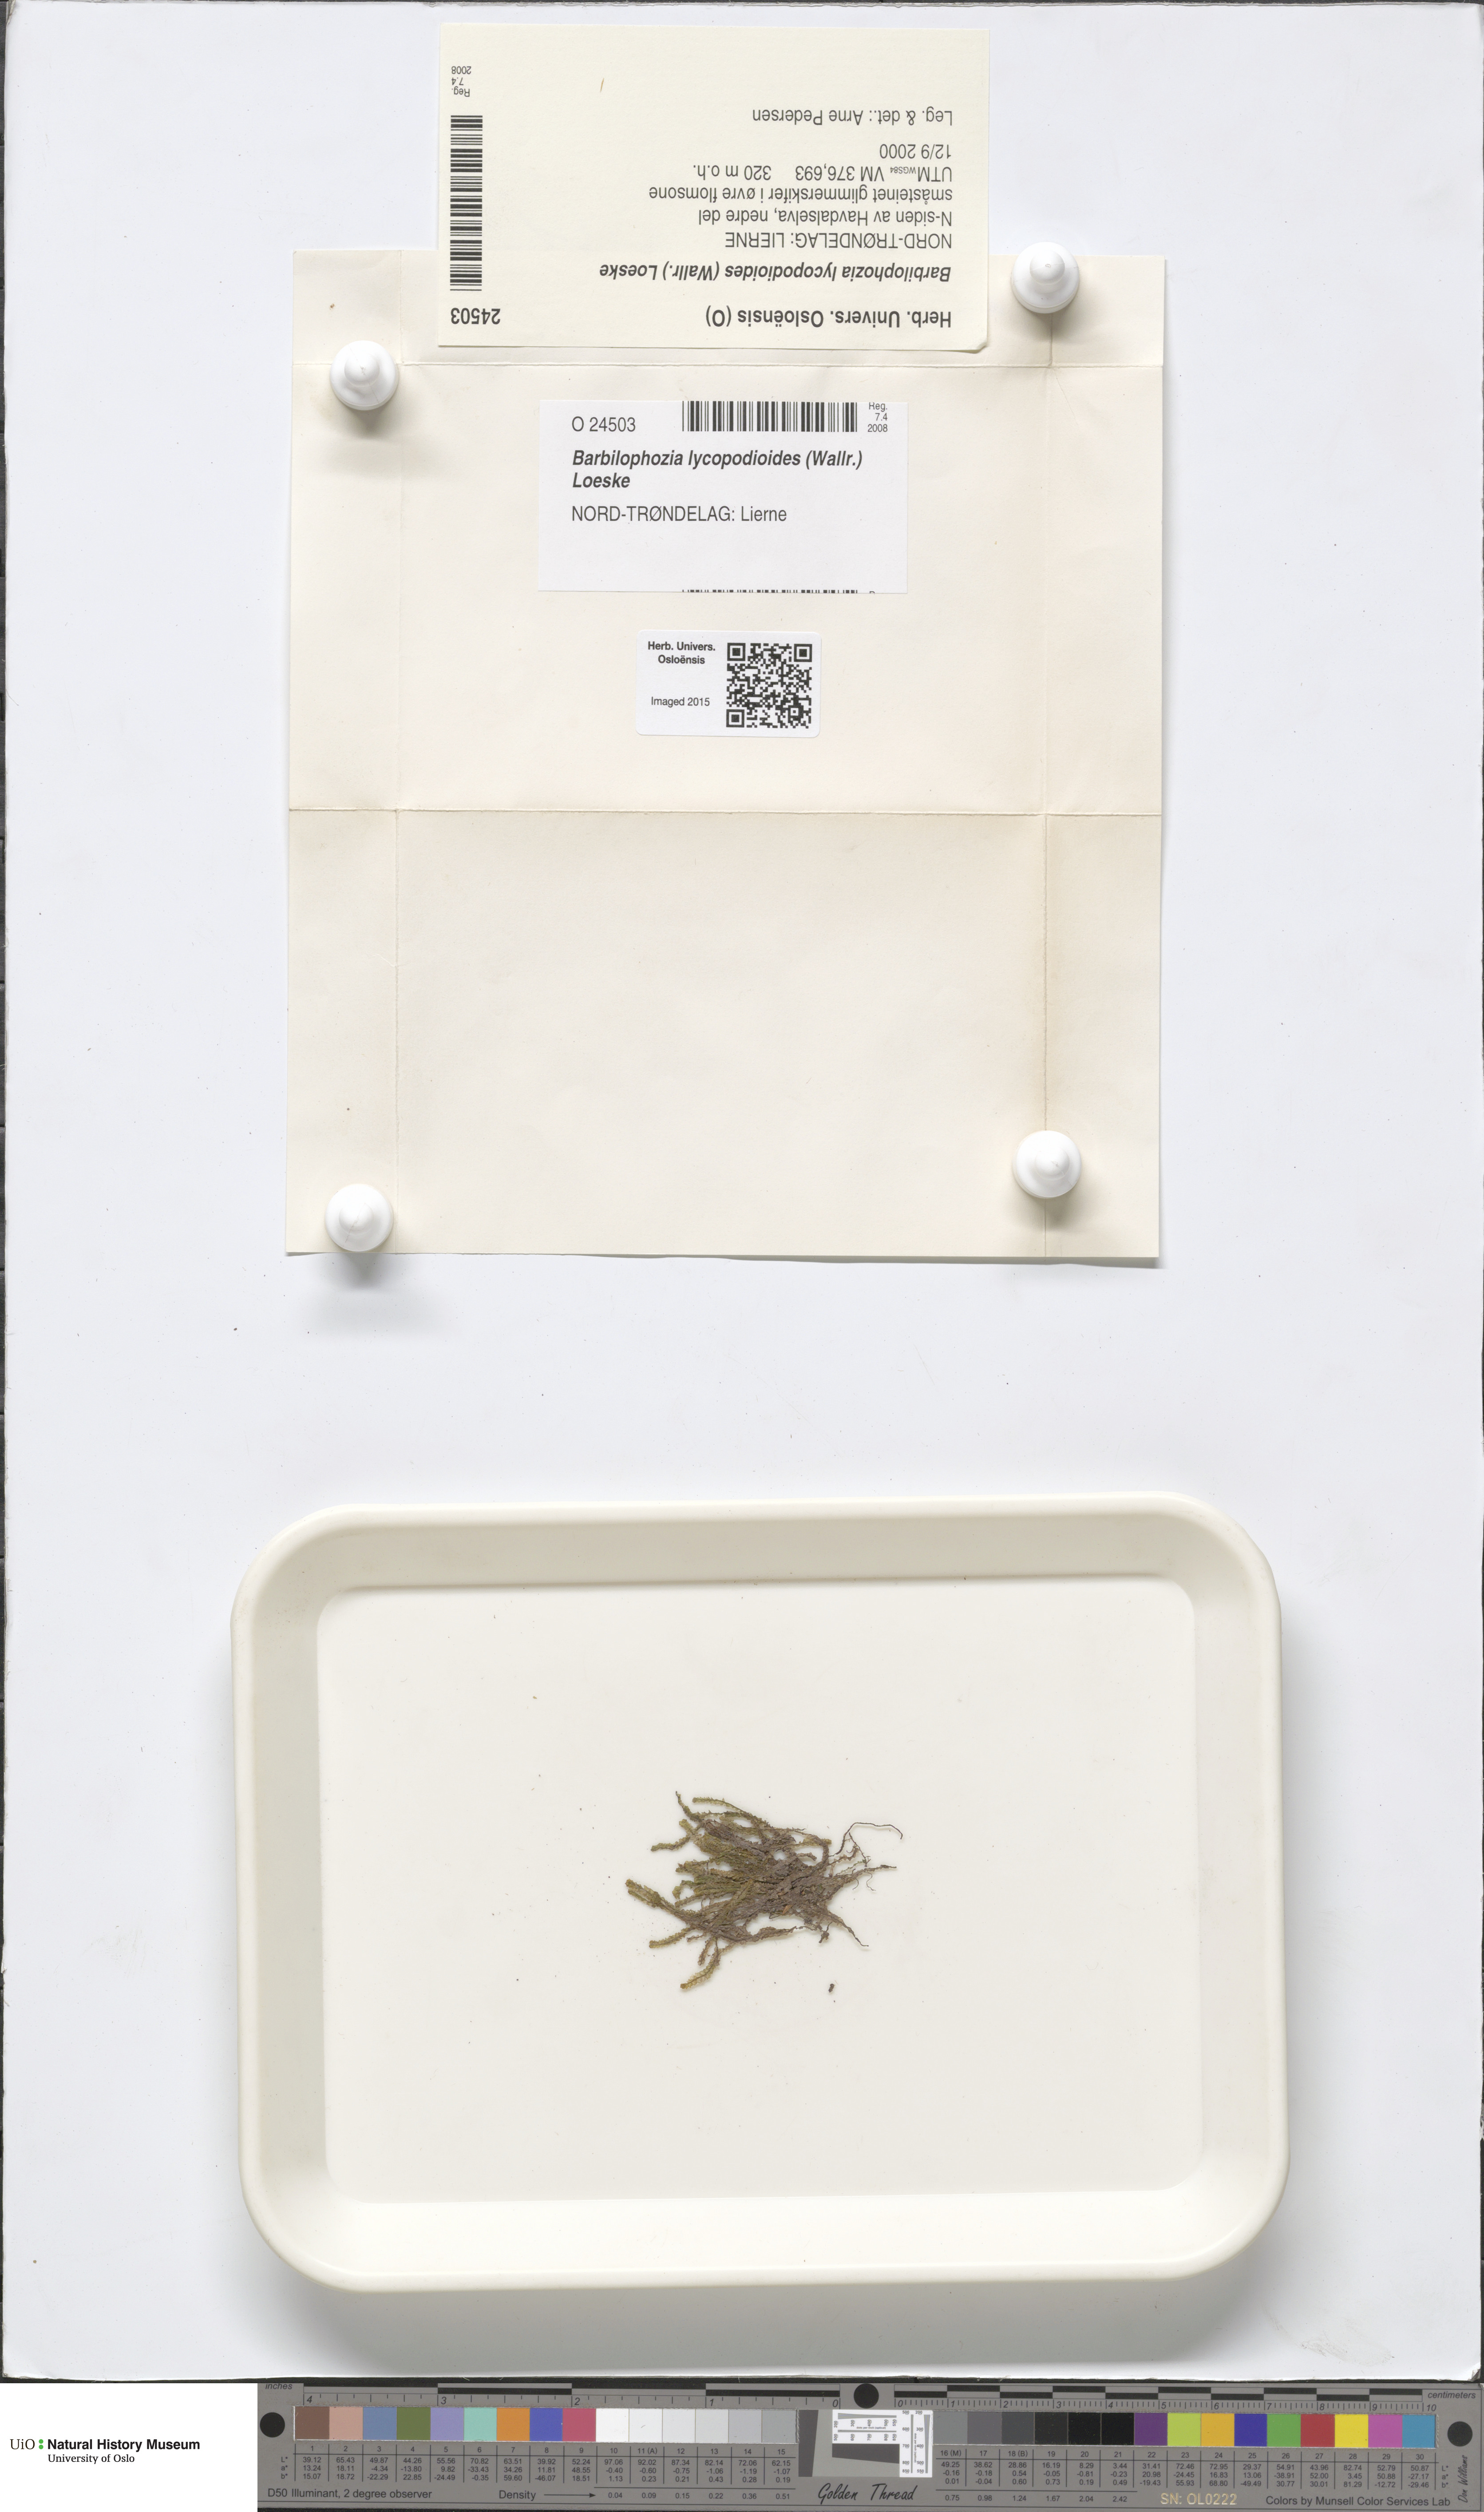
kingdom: Plantae
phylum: Marchantiophyta
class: Jungermanniopsida
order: Jungermanniales
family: Anastrophyllaceae
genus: Barbilophozia
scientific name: Barbilophozia lycopodioides
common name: Greater pawwort
